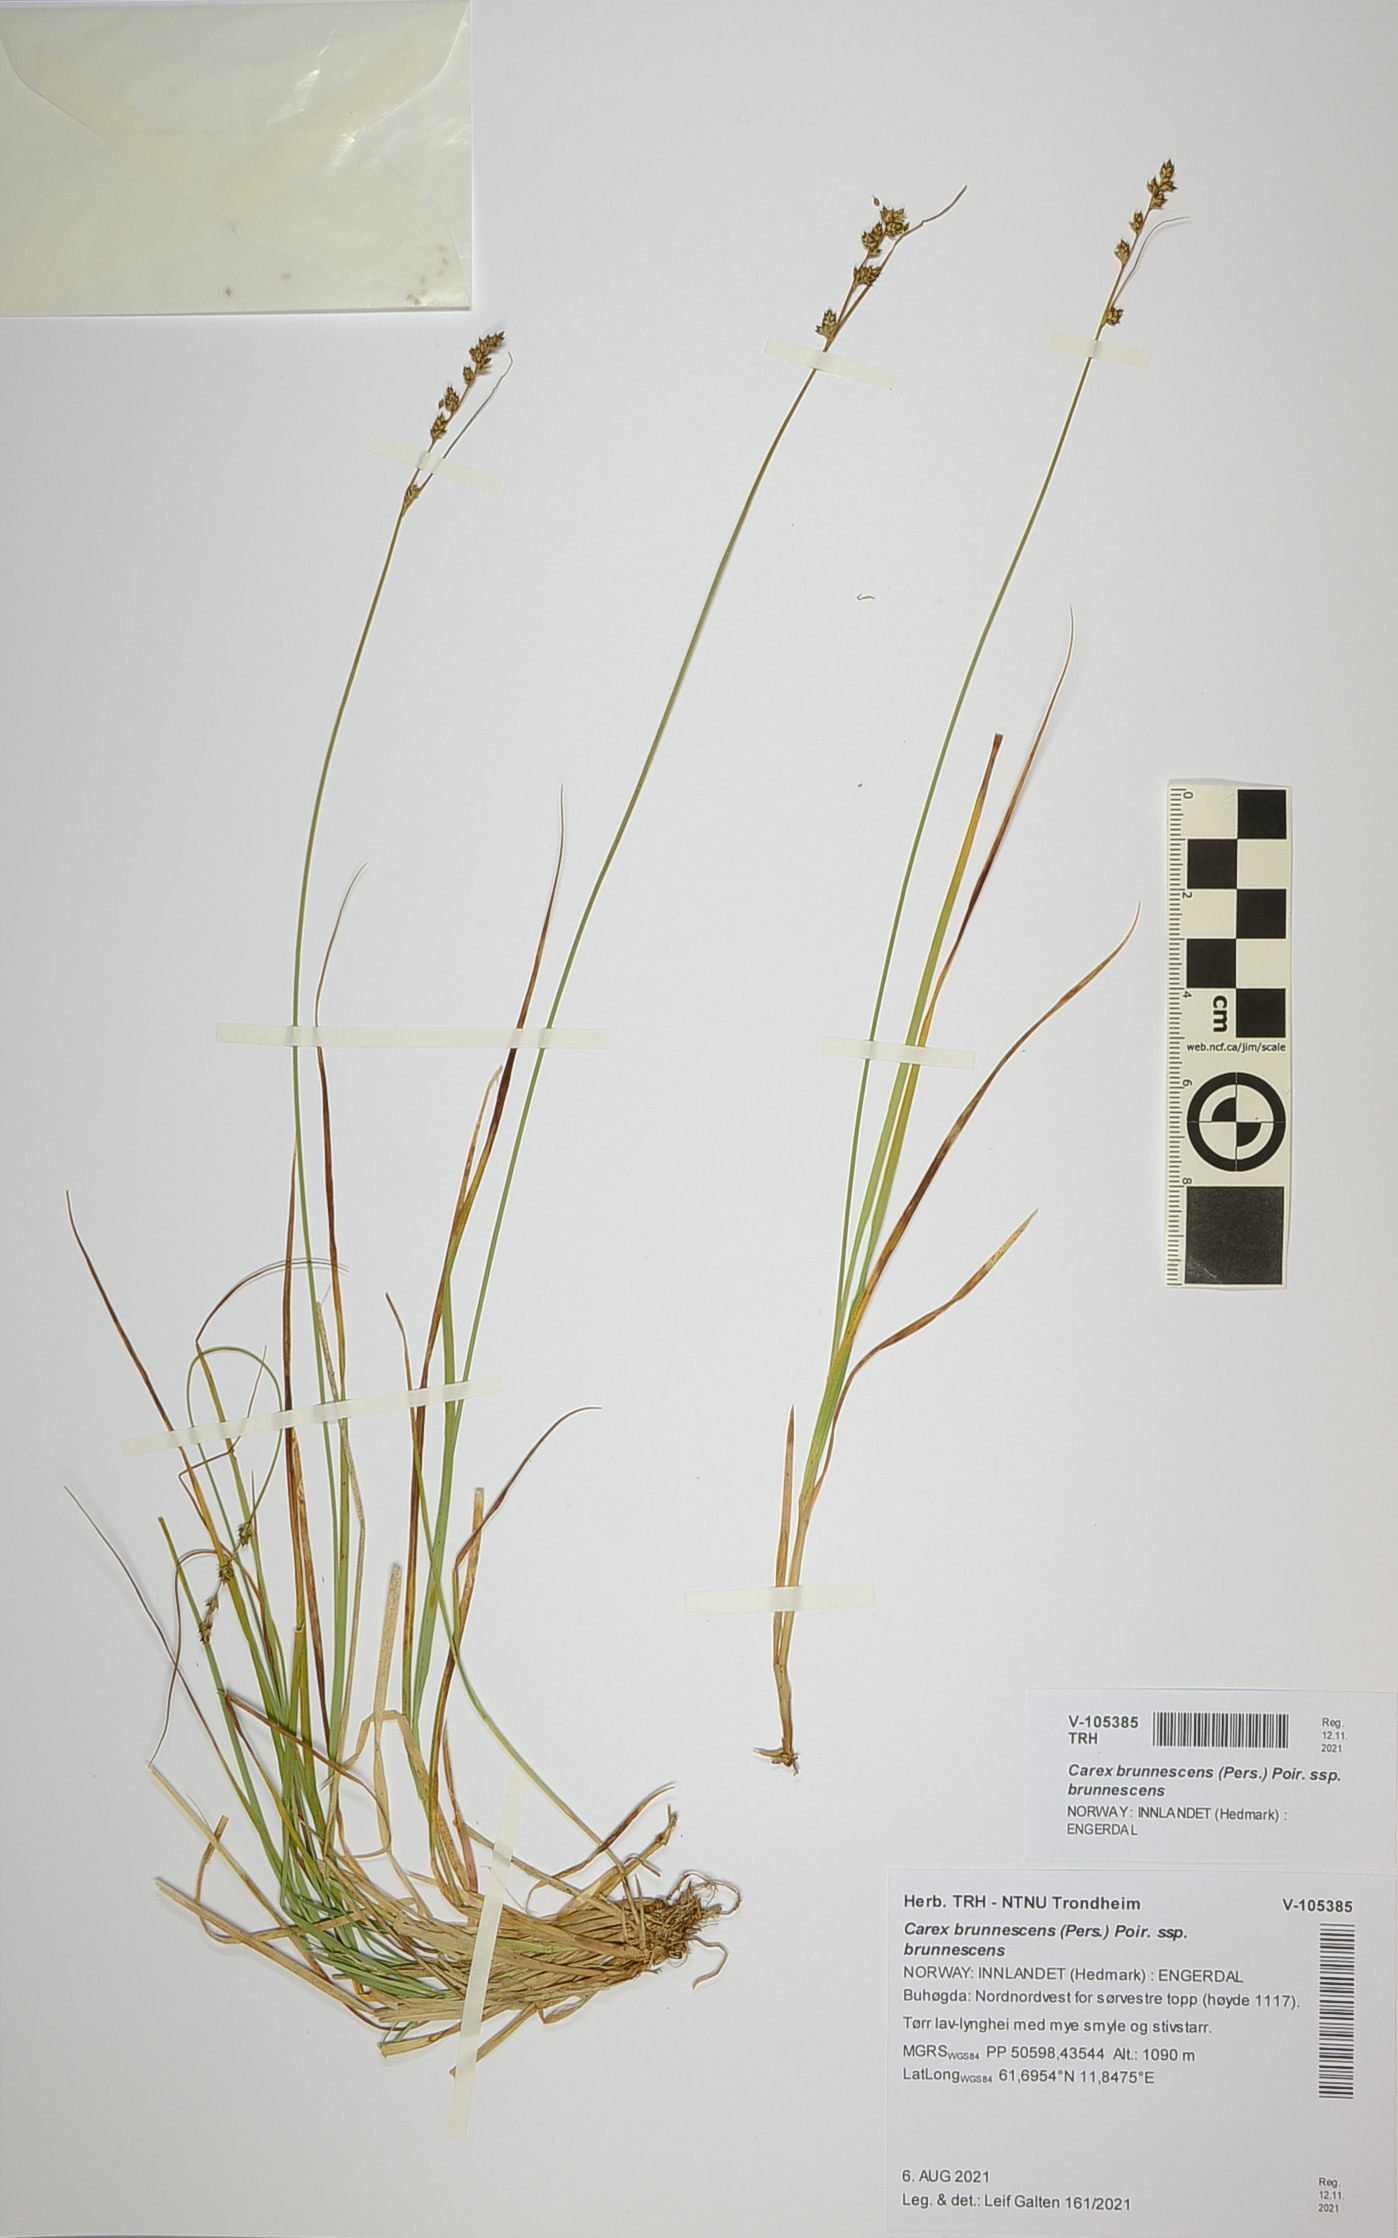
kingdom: Plantae
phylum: Tracheophyta
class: Liliopsida
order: Poales
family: Cyperaceae
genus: Carex
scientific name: Carex brunnescens
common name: Brown sedge
